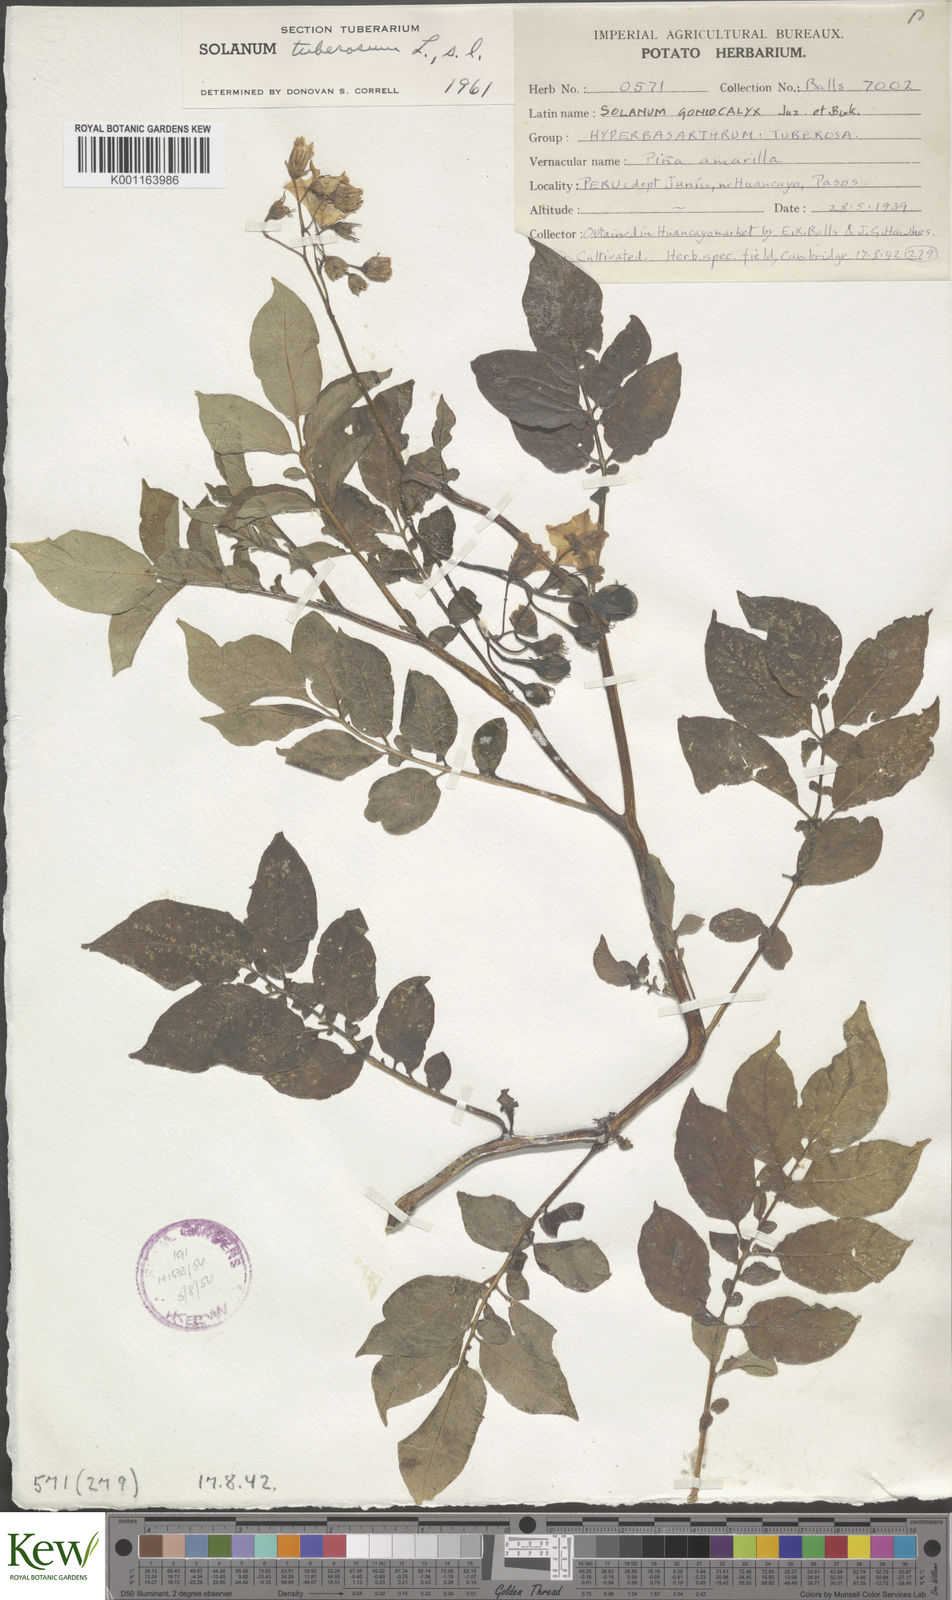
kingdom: Plantae
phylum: Tracheophyta
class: Magnoliopsida
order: Solanales
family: Solanaceae
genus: Solanum
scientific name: Solanum tuberosum
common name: Potato
